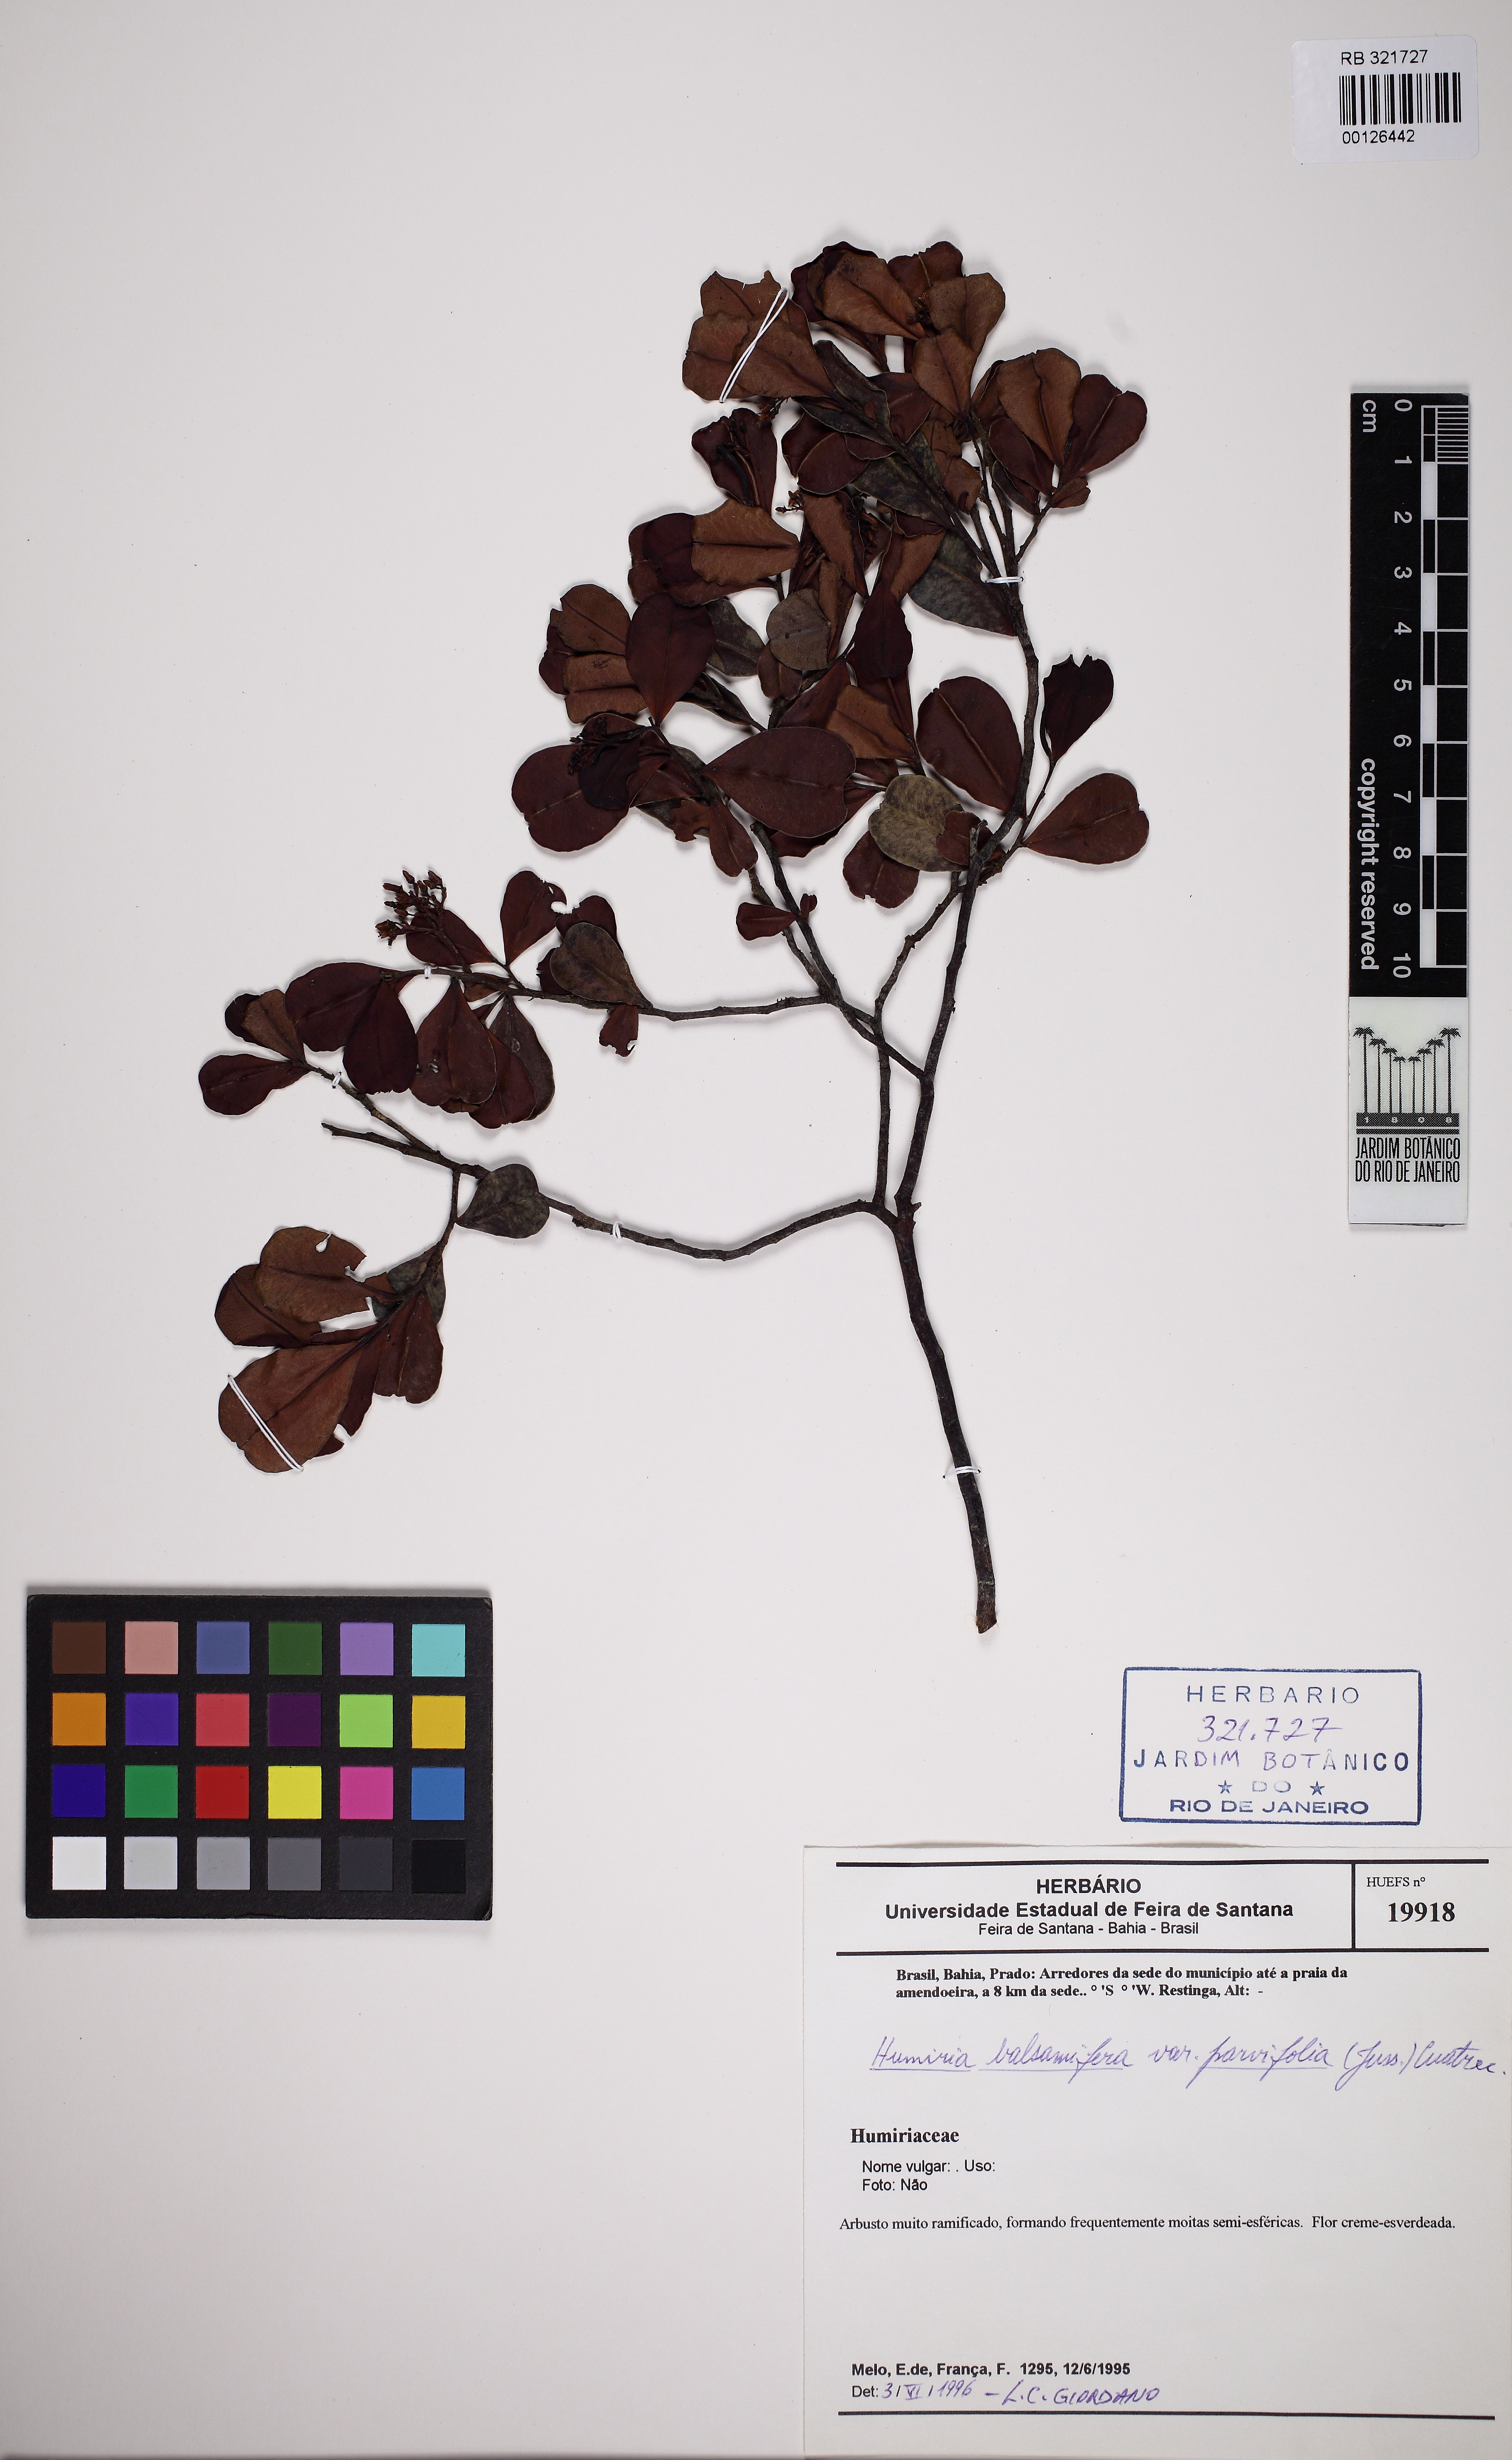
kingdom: Plantae
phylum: Tracheophyta
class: Magnoliopsida
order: Malpighiales
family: Humiriaceae
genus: Humiria
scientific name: Humiria parvifolia
